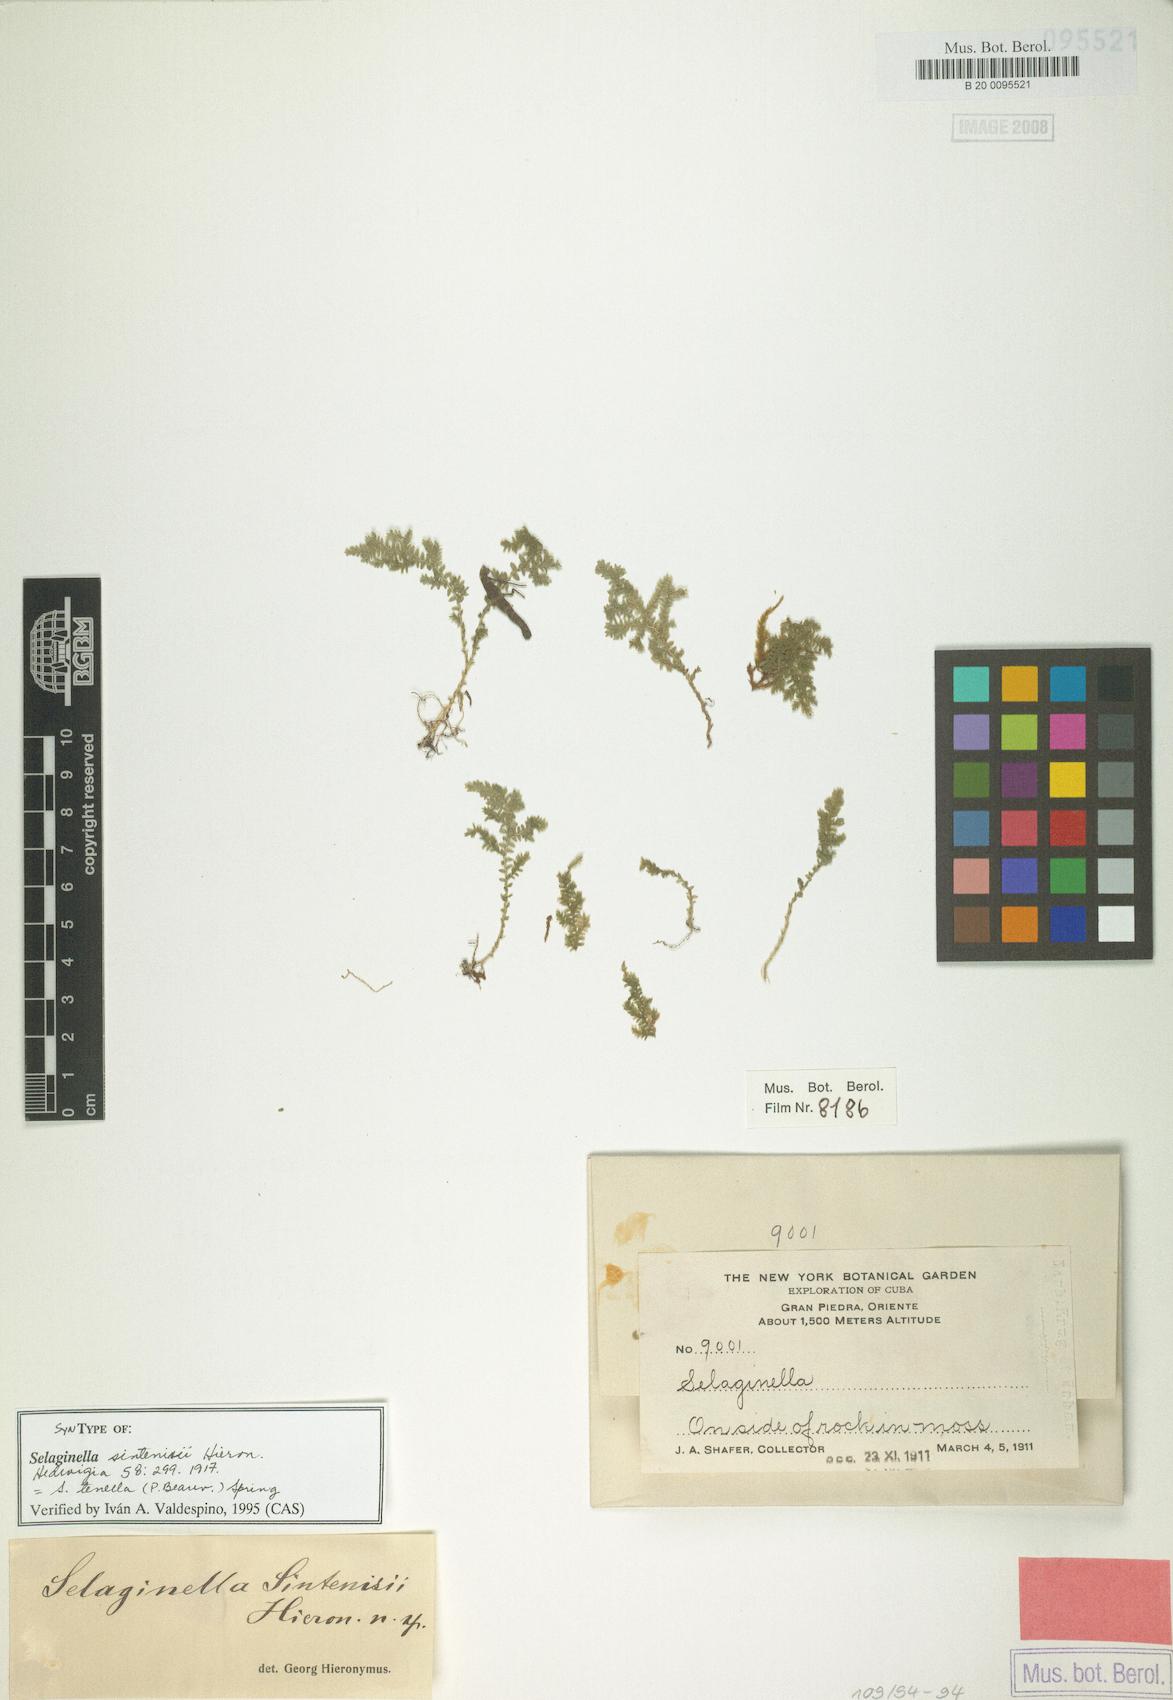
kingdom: Plantae
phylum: Tracheophyta
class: Lycopodiopsida
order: Selaginellales
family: Selaginellaceae
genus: Selaginella
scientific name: Selaginella tenella
